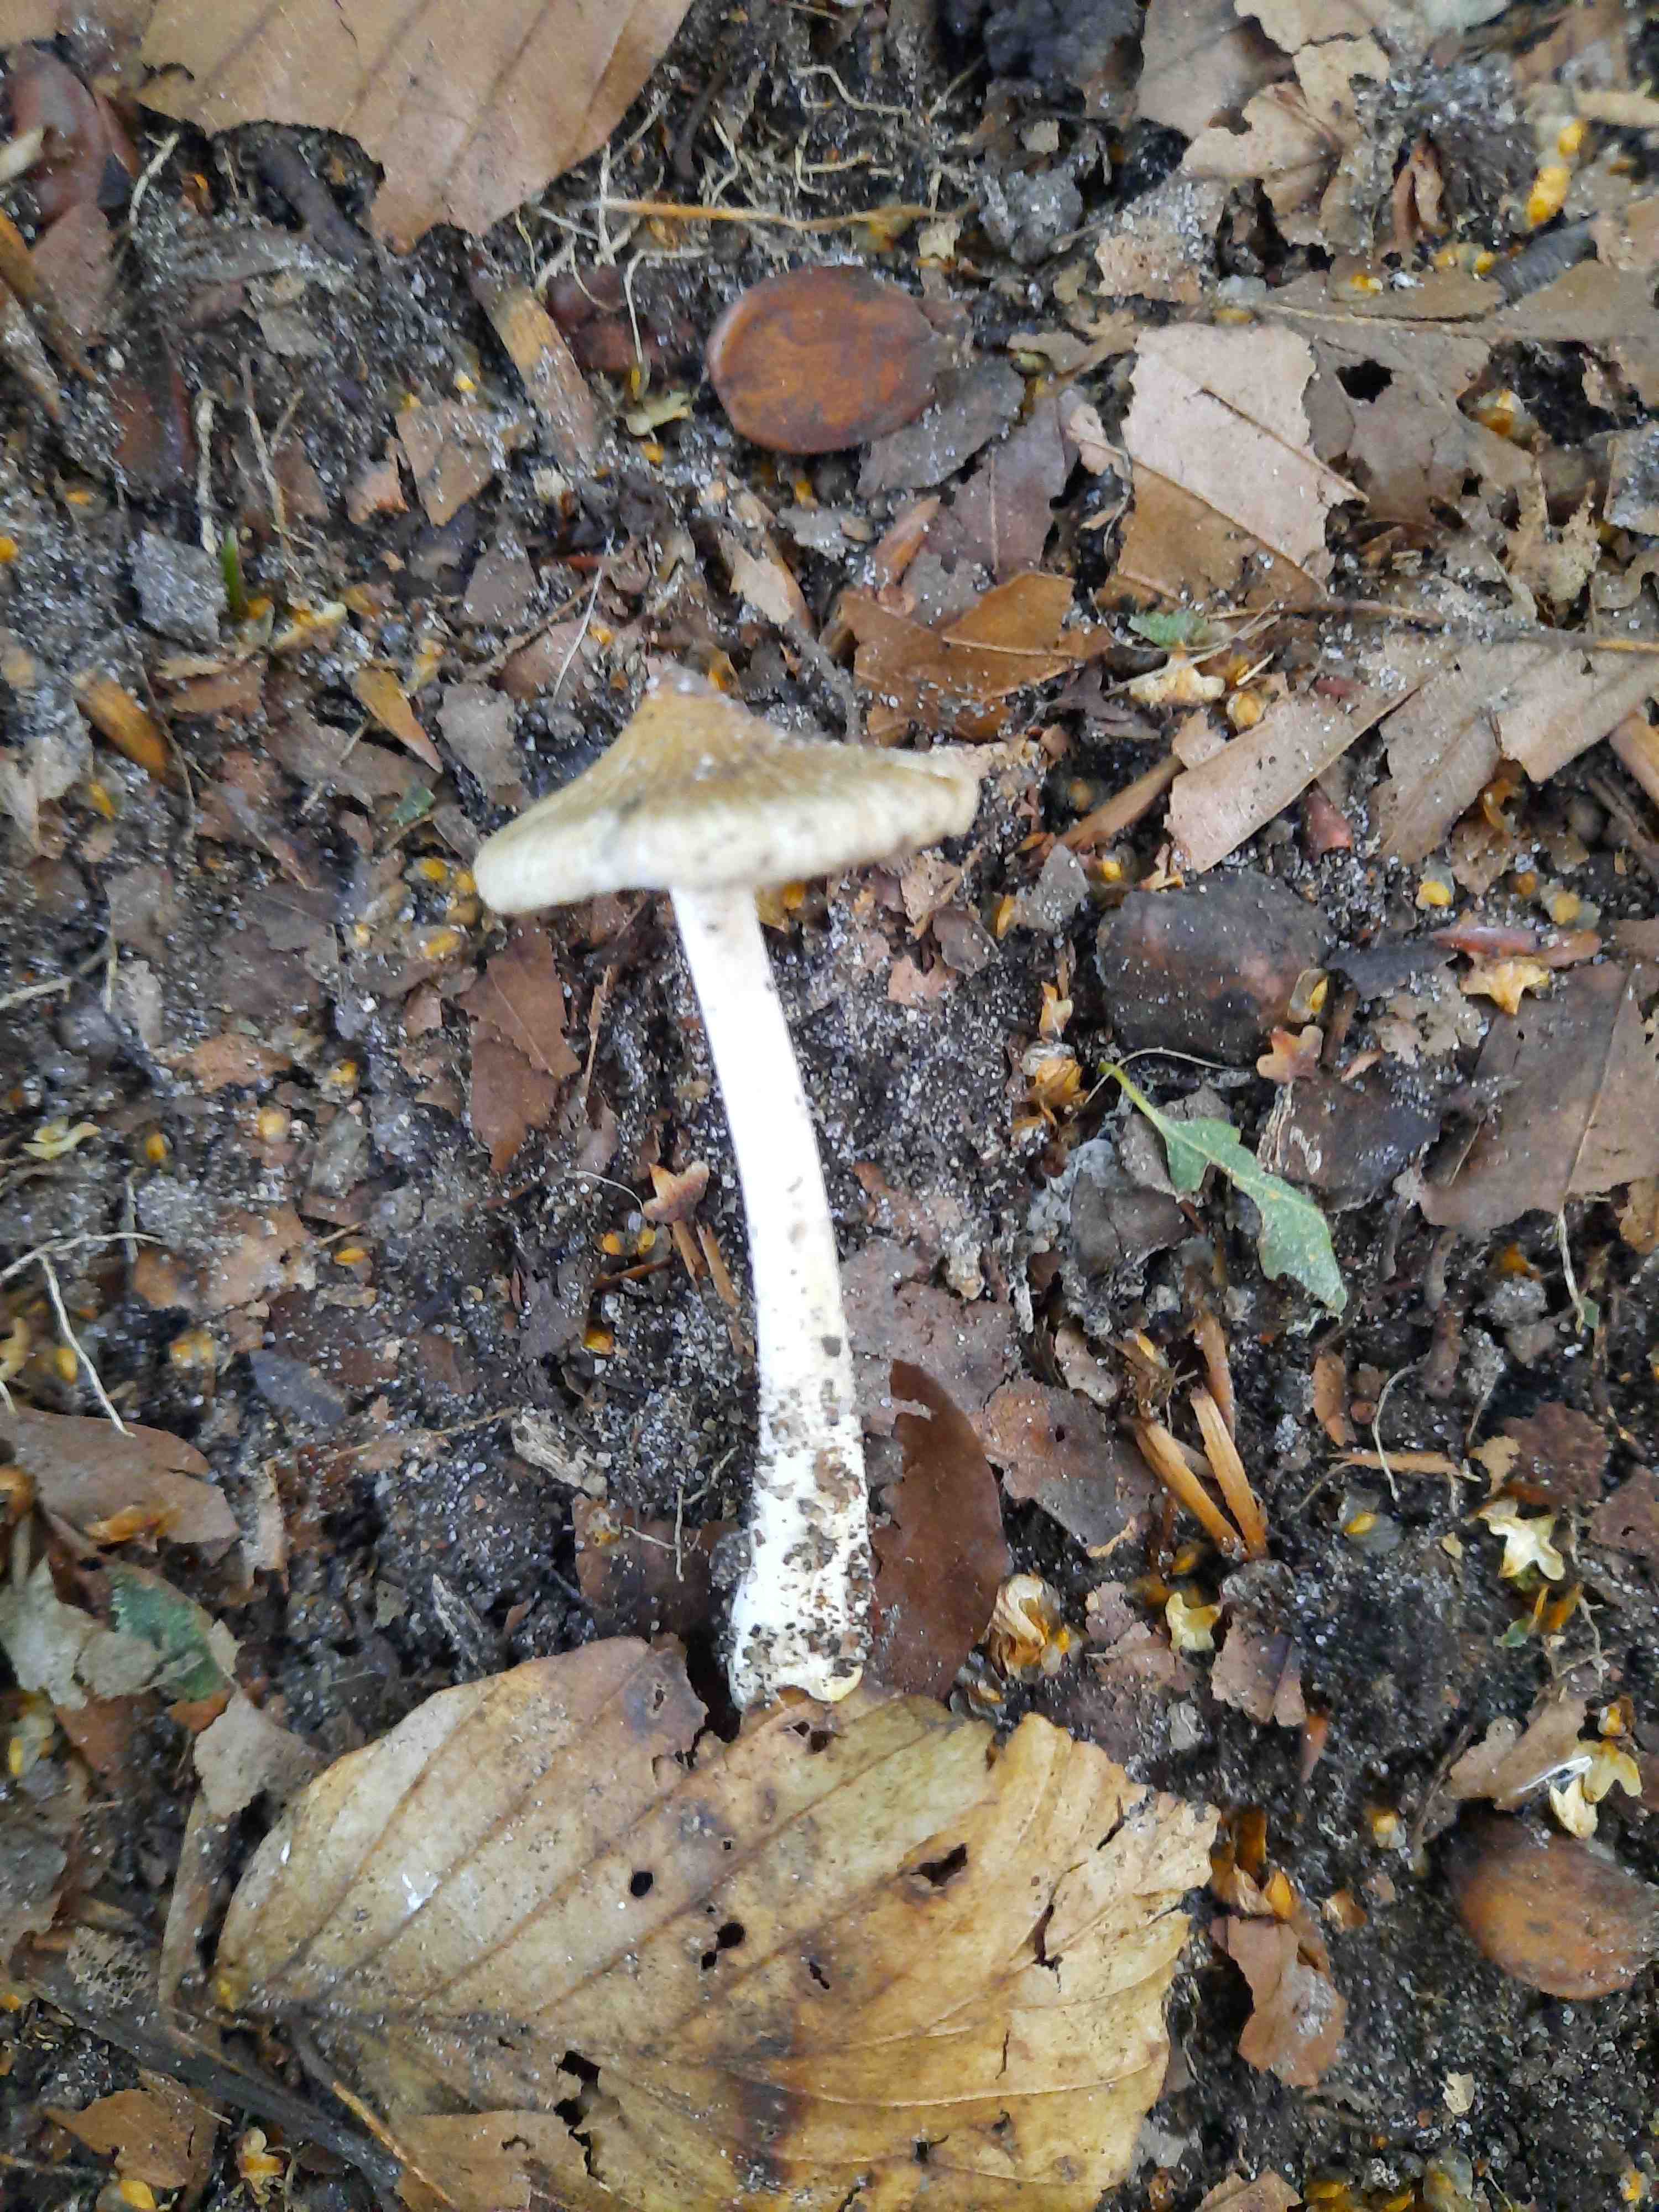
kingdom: Fungi
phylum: Basidiomycota
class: Agaricomycetes
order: Agaricales
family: Inocybaceae
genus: Inocybe
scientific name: Inocybe
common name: trævlhat
